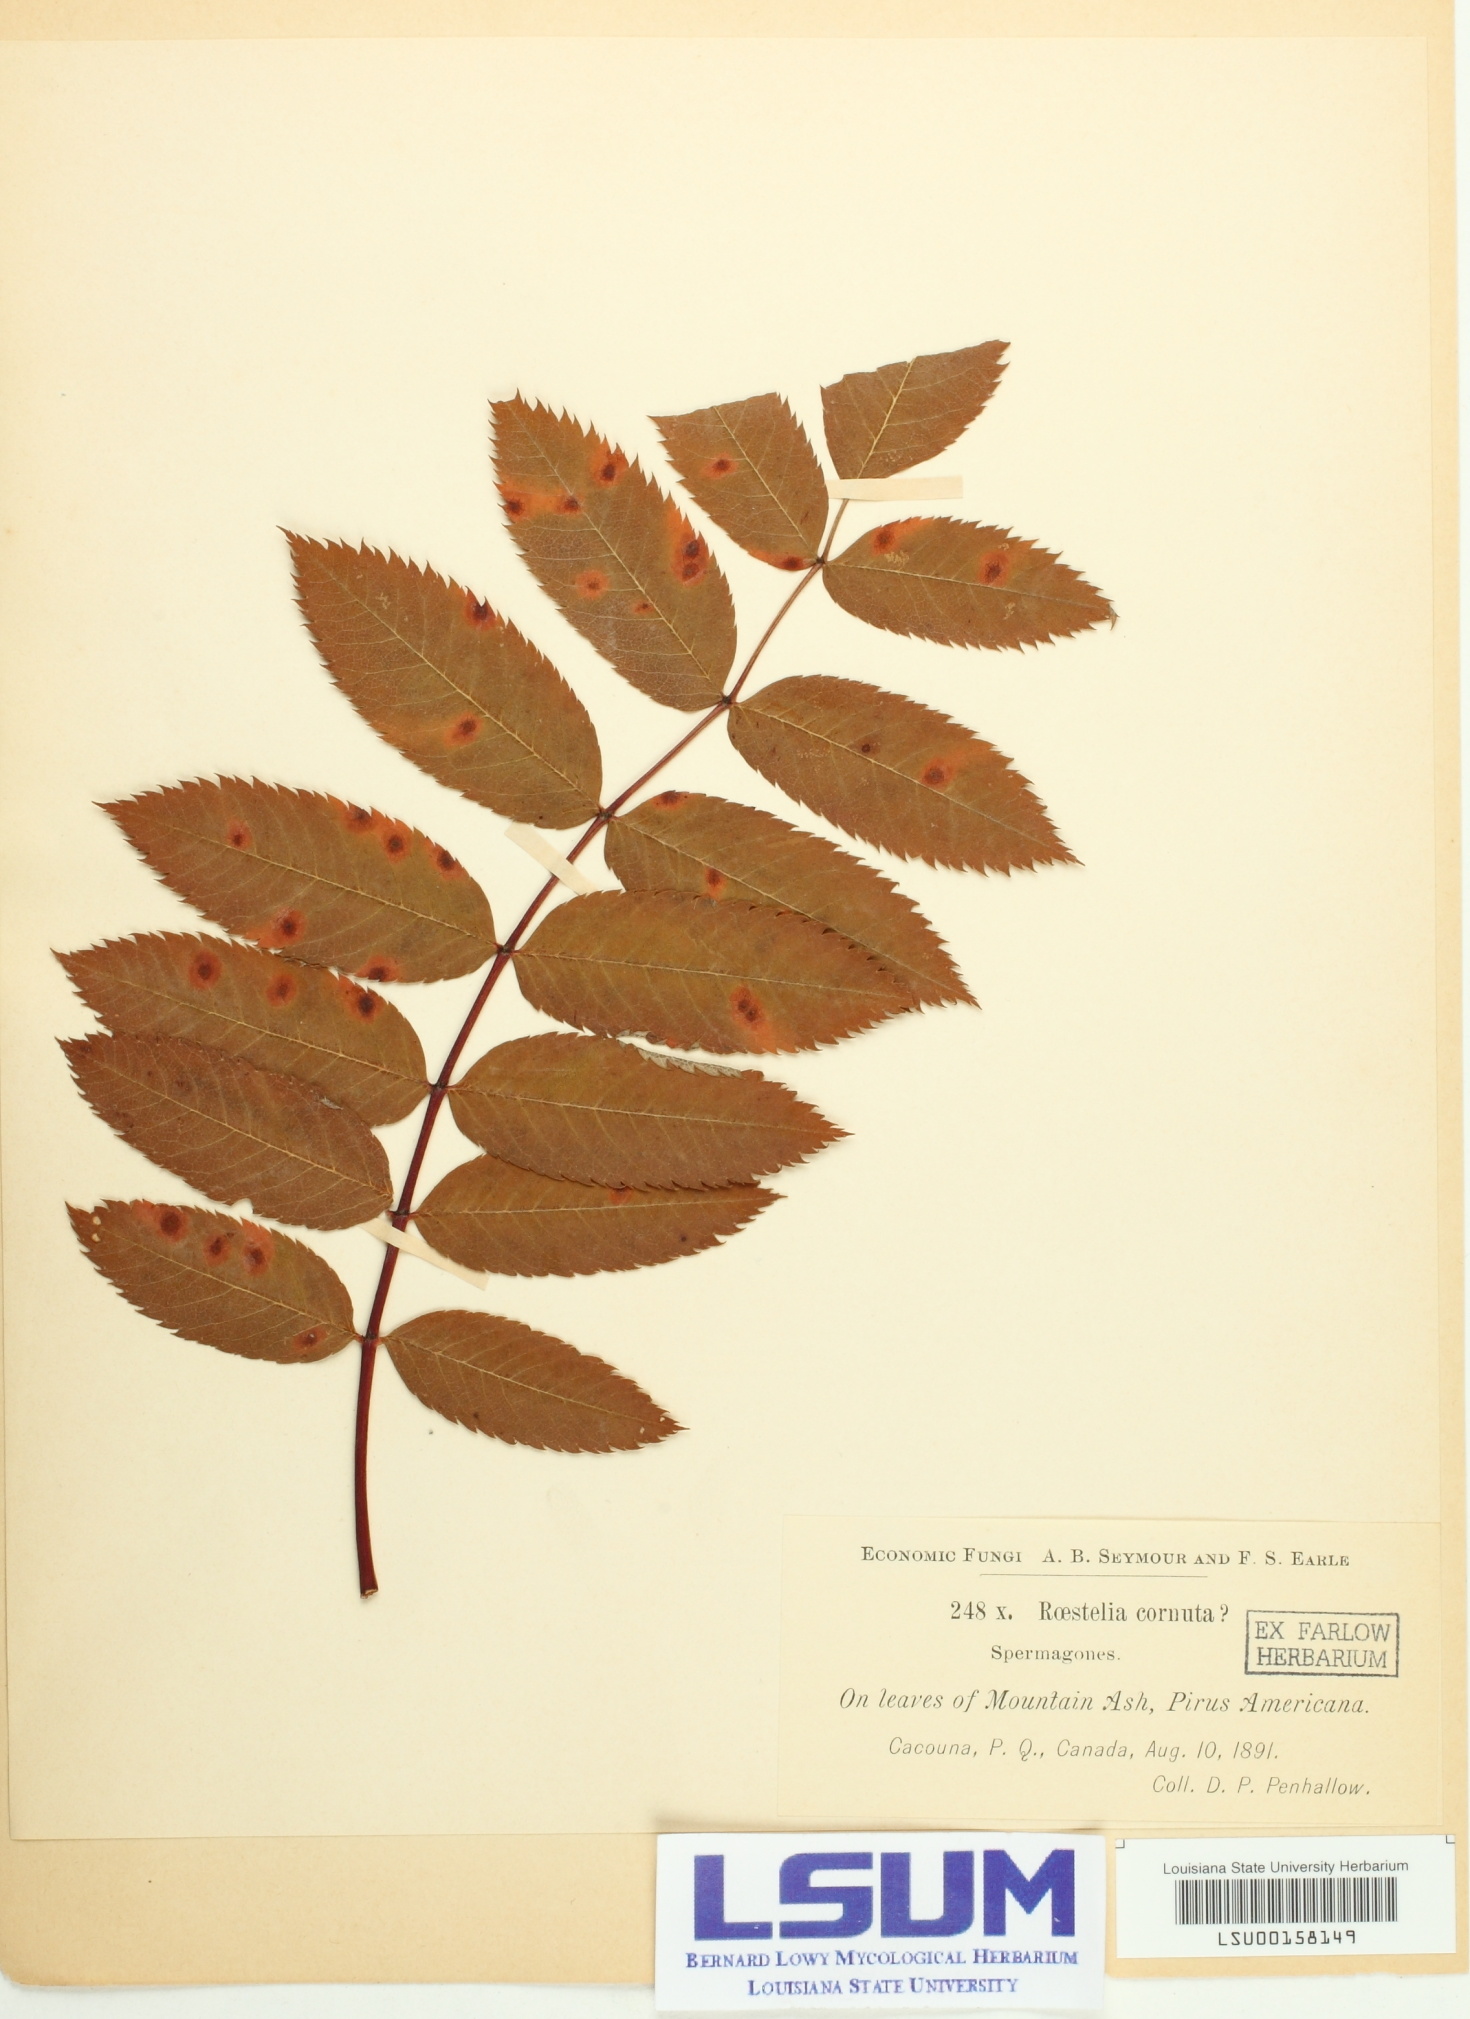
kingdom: Fungi
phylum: Basidiomycota
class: Pucciniomycetes
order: Pucciniales
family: Gymnosporangiaceae
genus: Gymnosporangium
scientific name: Gymnosporangium cornutum
